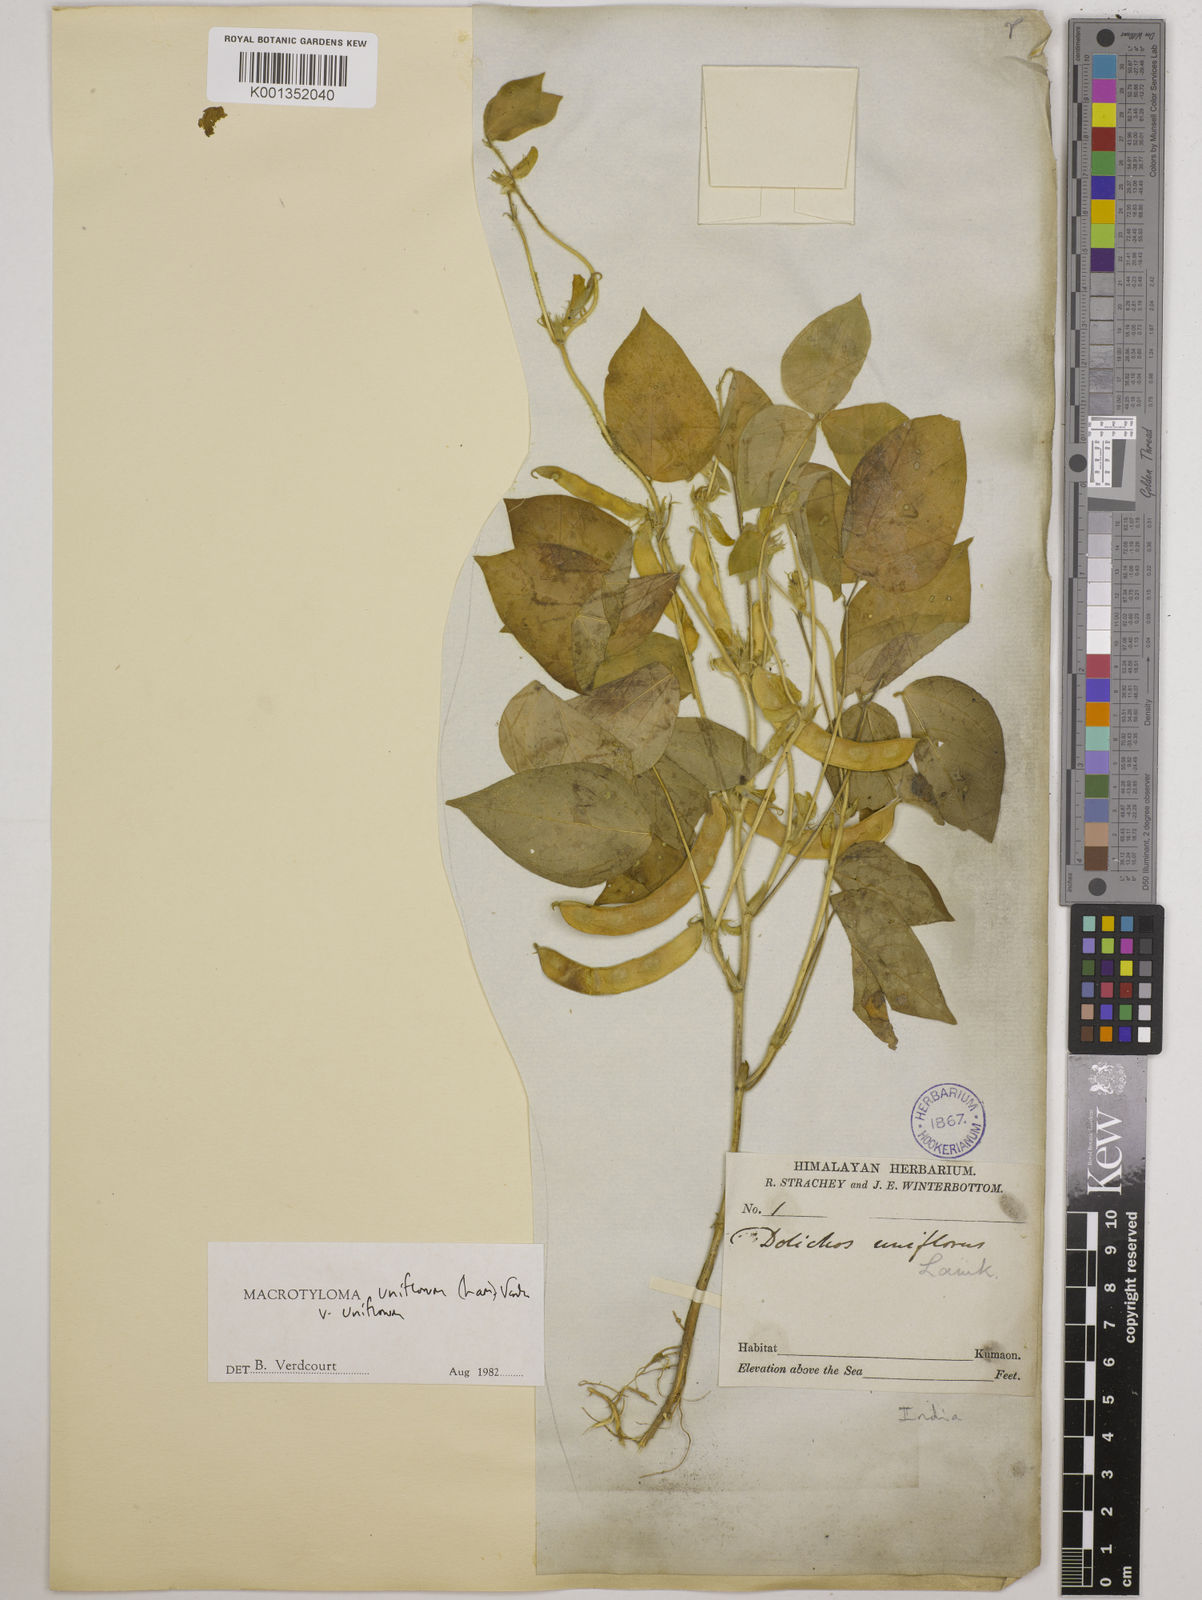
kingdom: Plantae
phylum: Tracheophyta
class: Magnoliopsida
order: Fabales
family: Fabaceae
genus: Macrotyloma
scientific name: Macrotyloma uniflorum
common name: Horse gram
